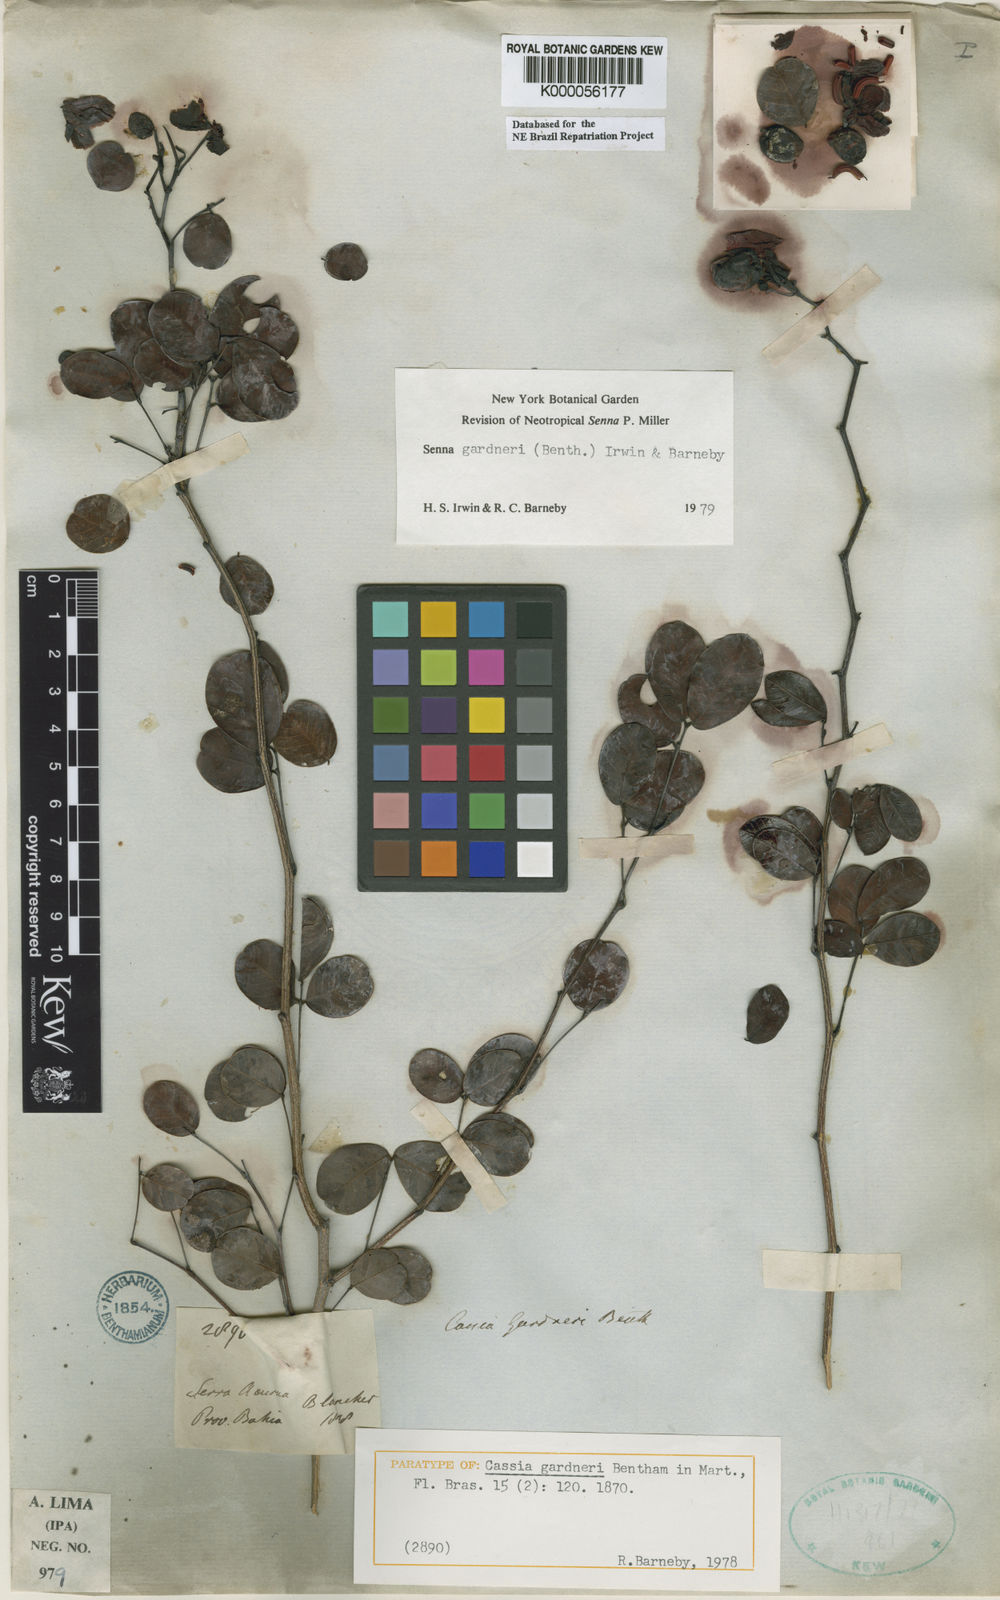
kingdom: Plantae
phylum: Tracheophyta
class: Magnoliopsida
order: Fabales
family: Fabaceae
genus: Senna
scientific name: Senna gardneri
